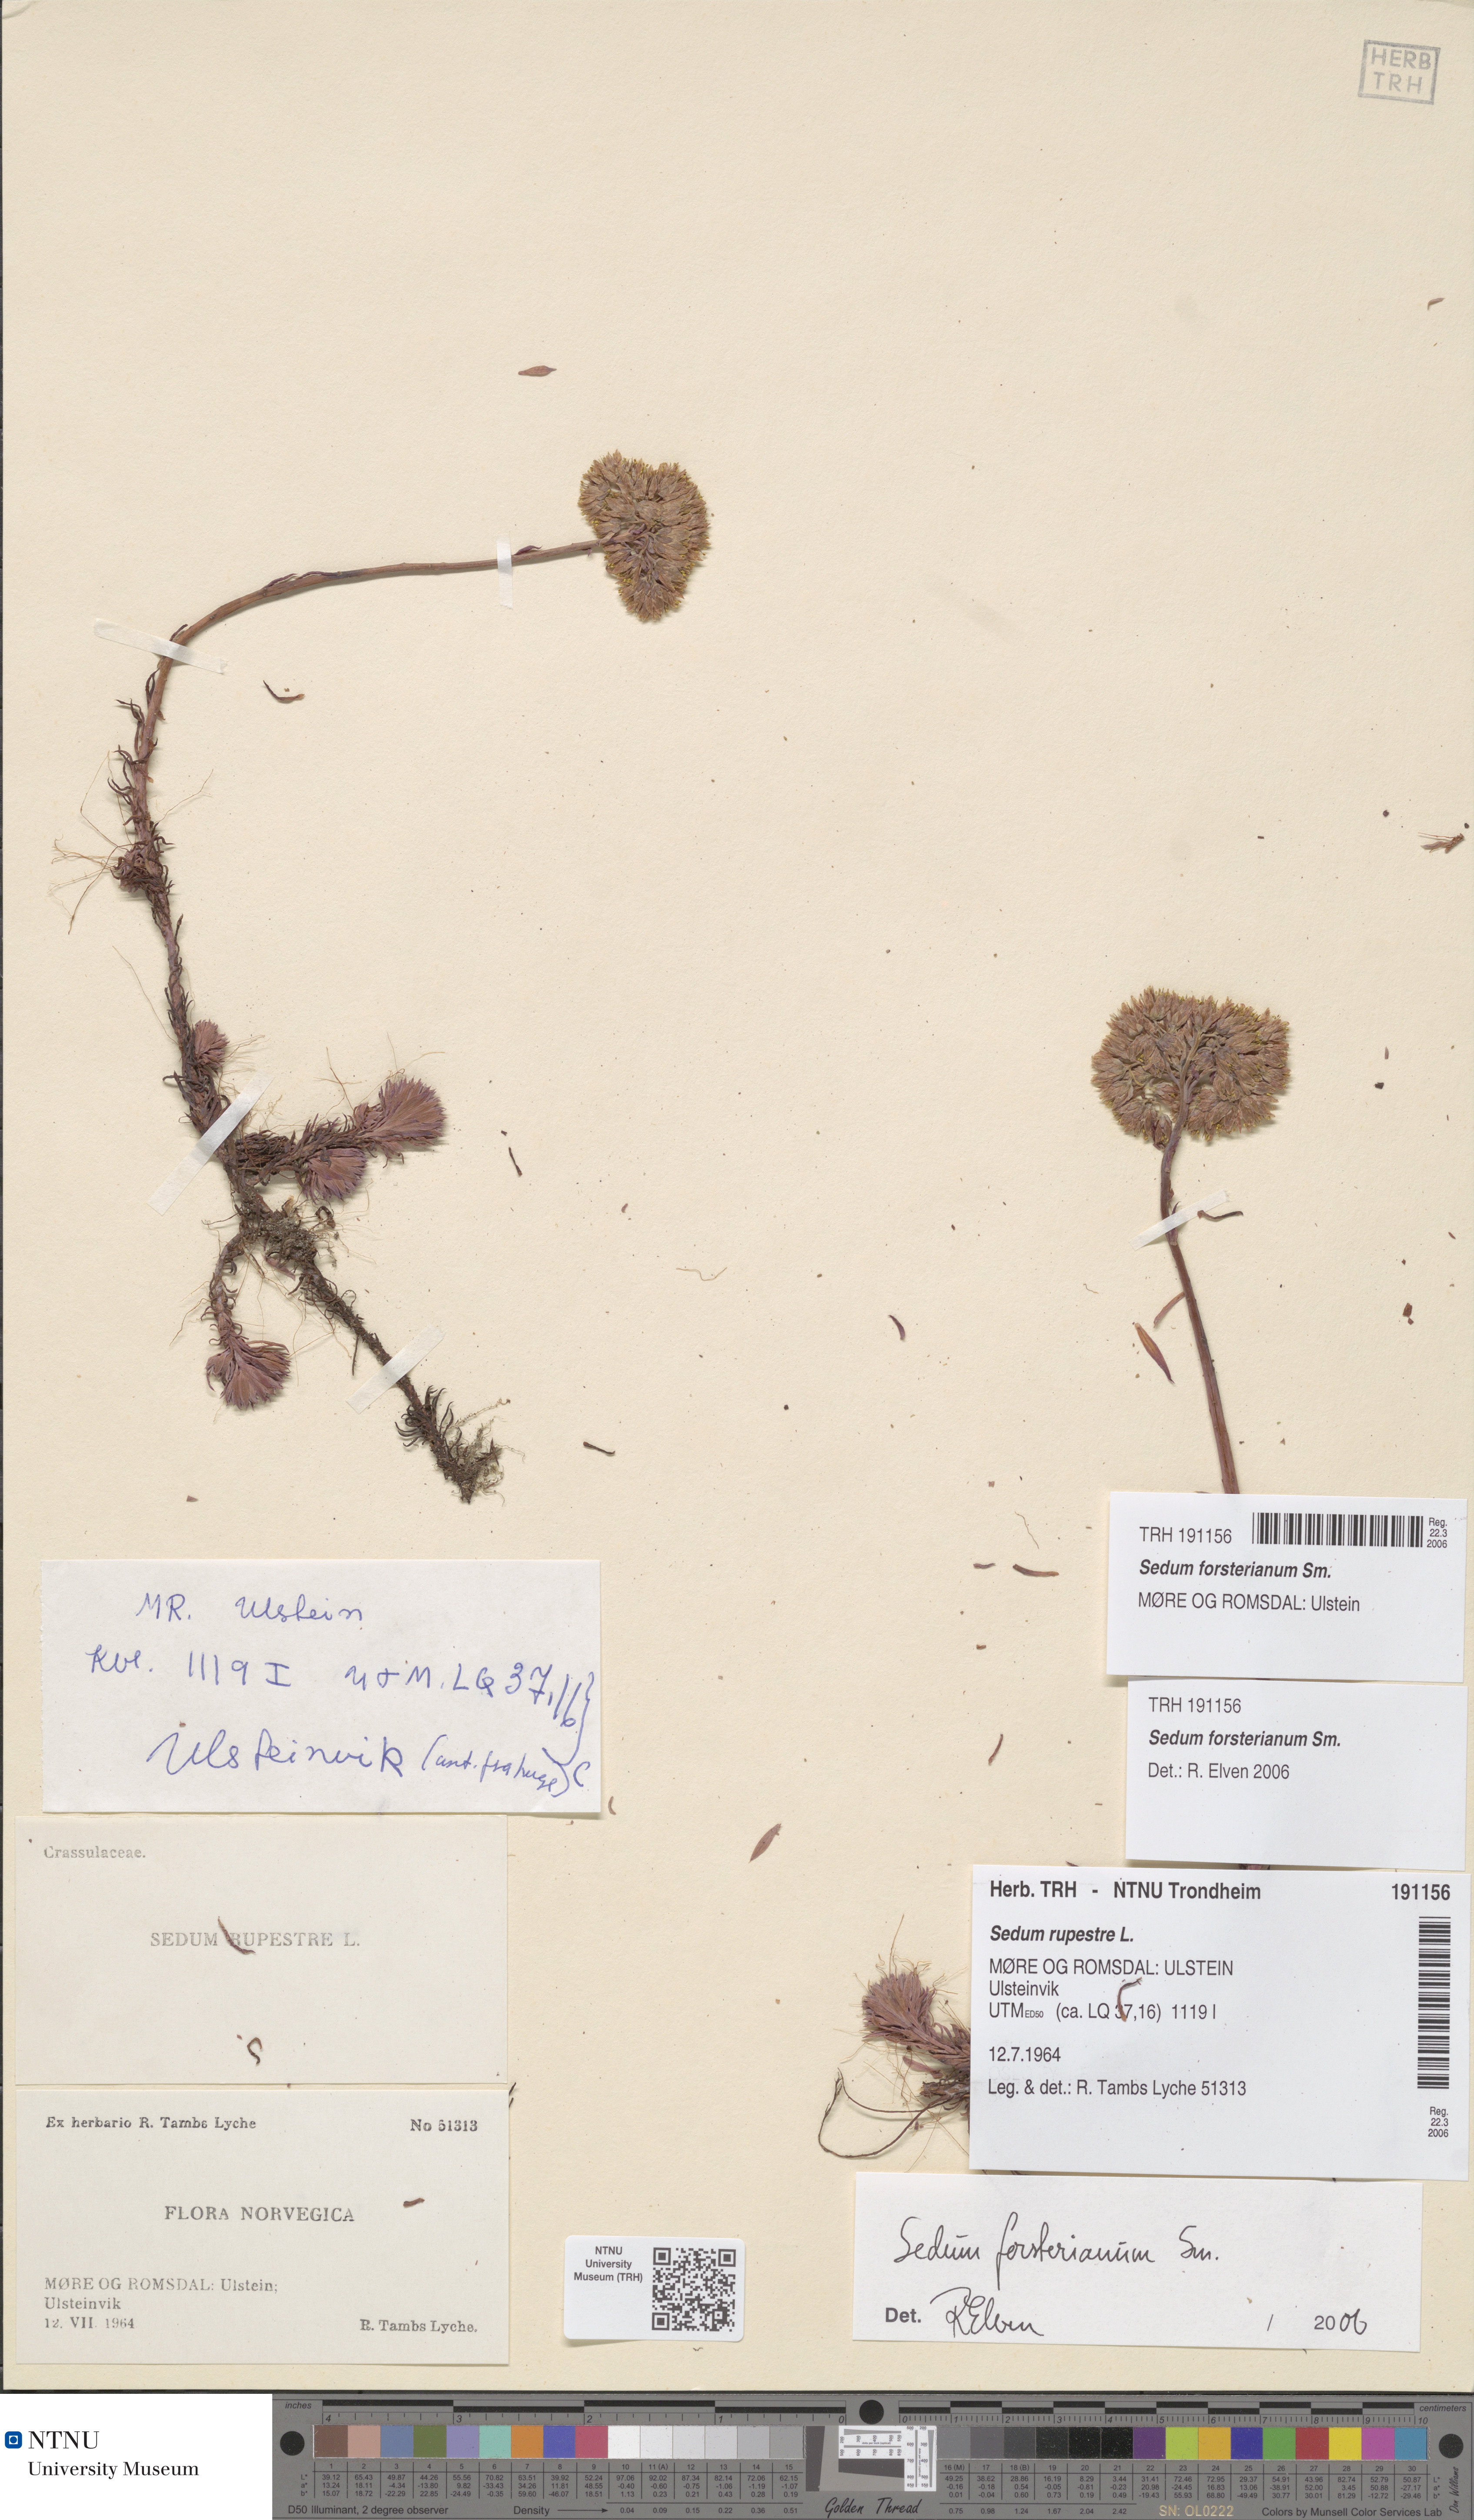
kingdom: Plantae
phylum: Tracheophyta
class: Magnoliopsida
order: Saxifragales
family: Crassulaceae
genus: Petrosedum
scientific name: Petrosedum forsterianum
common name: Forster's stonecrop
